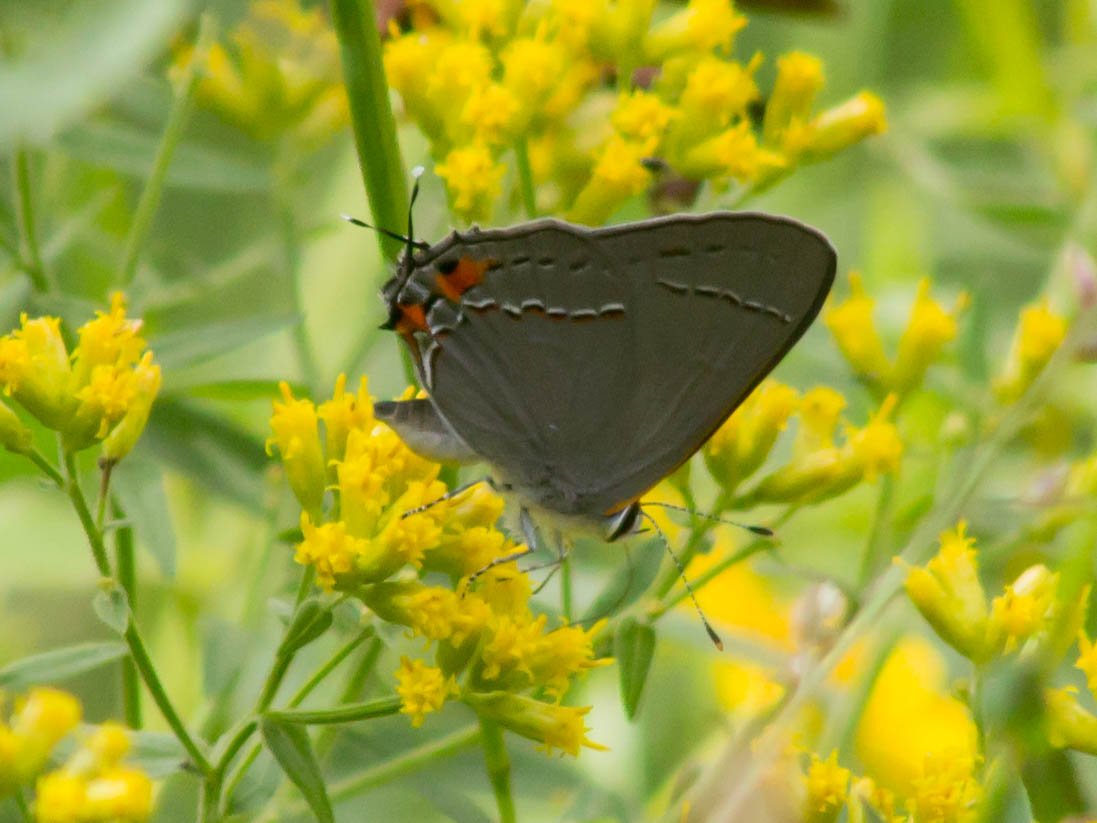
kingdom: Animalia
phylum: Arthropoda
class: Insecta
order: Lepidoptera
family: Lycaenidae
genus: Strymon
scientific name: Strymon melinus
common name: Gray Hairstreak
